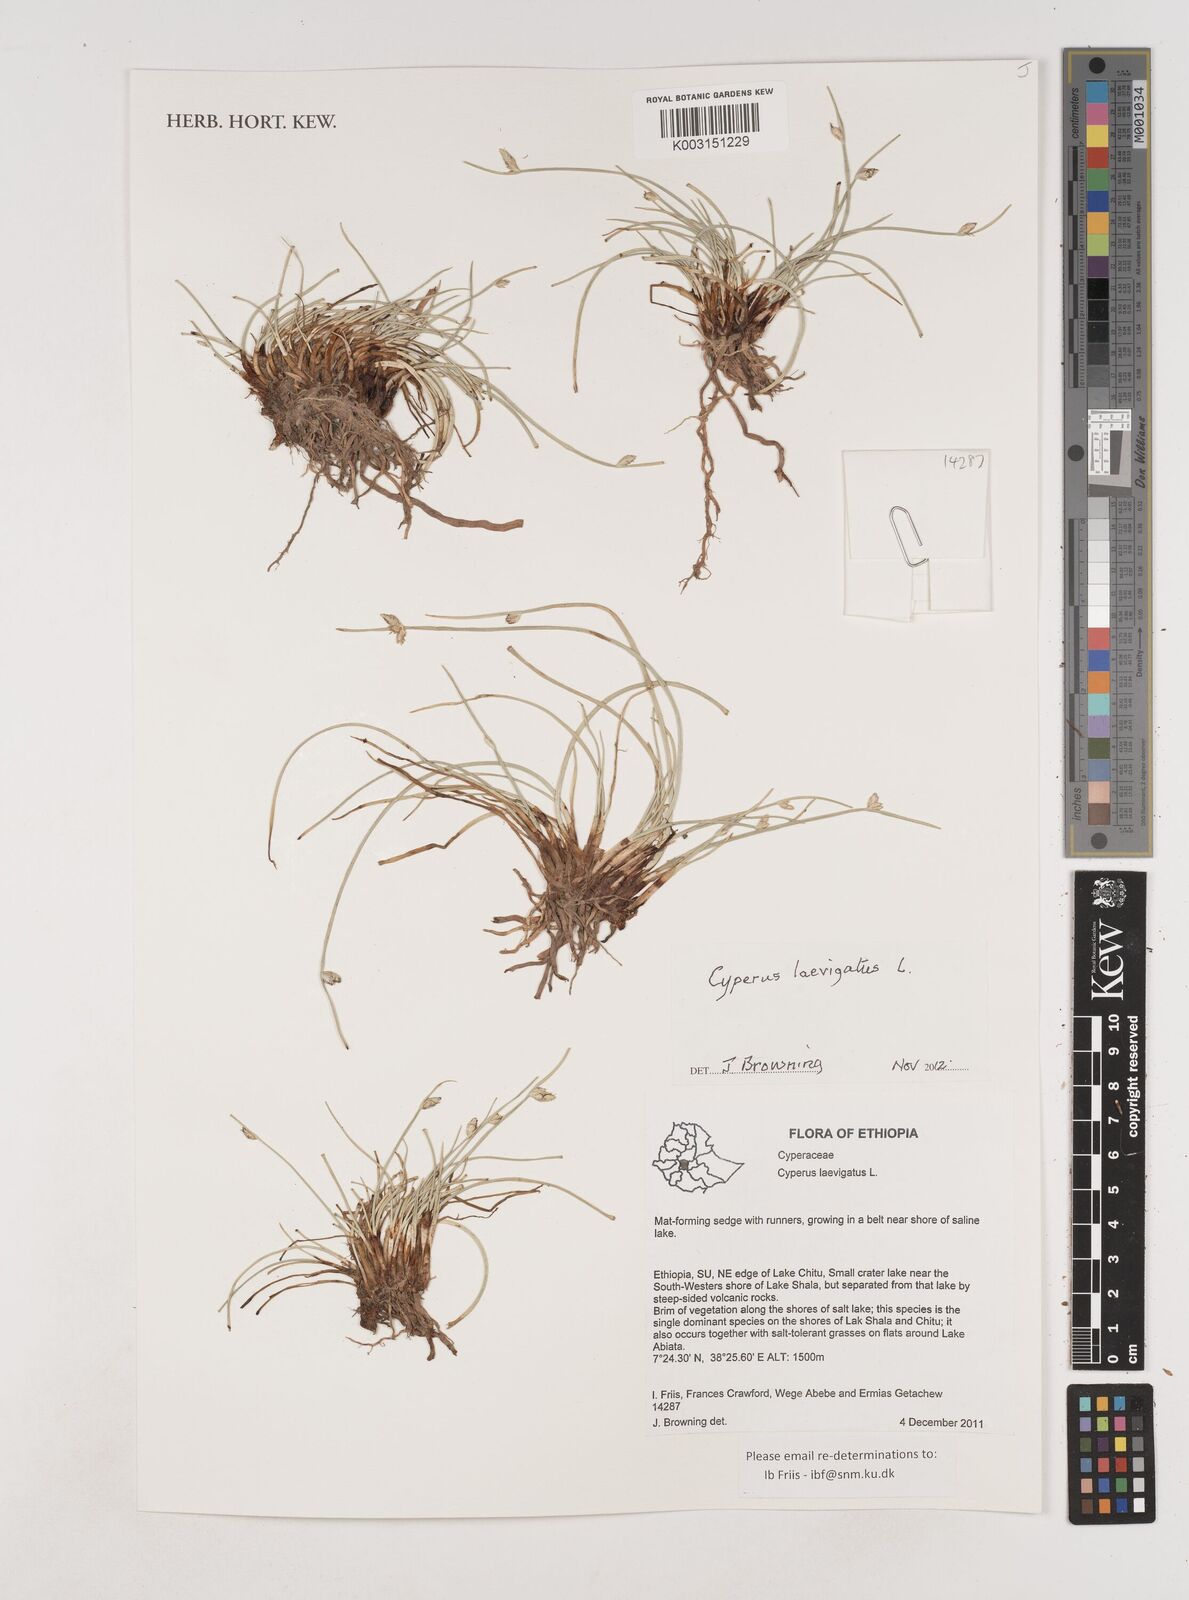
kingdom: Plantae
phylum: Tracheophyta
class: Liliopsida
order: Poales
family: Cyperaceae
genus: Cyperus
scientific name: Cyperus laevigatus
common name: Smooth flat sedge
